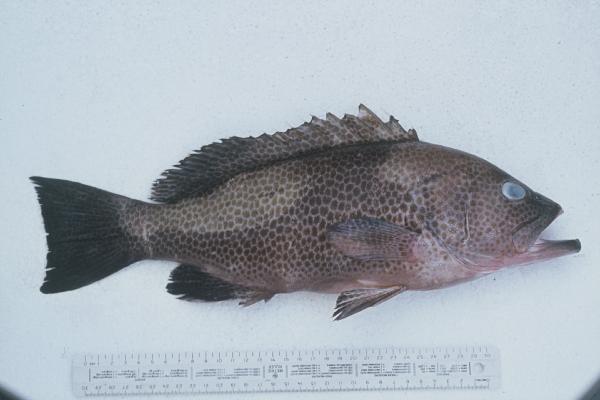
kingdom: Animalia
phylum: Chordata
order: Perciformes
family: Serranidae
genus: Epinephelus
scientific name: Epinephelus chlorostigma
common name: Brownspotted grouper
